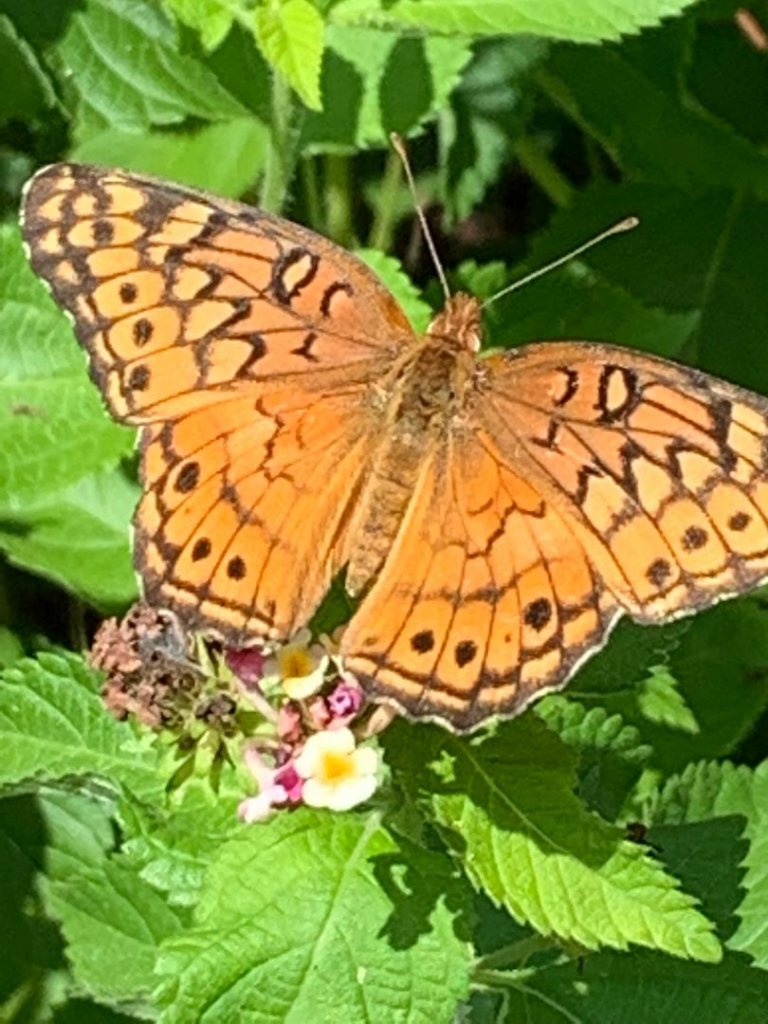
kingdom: Animalia
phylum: Arthropoda
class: Insecta
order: Lepidoptera
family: Nymphalidae
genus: Euptoieta
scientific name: Euptoieta claudia
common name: Variegated Fritillary
